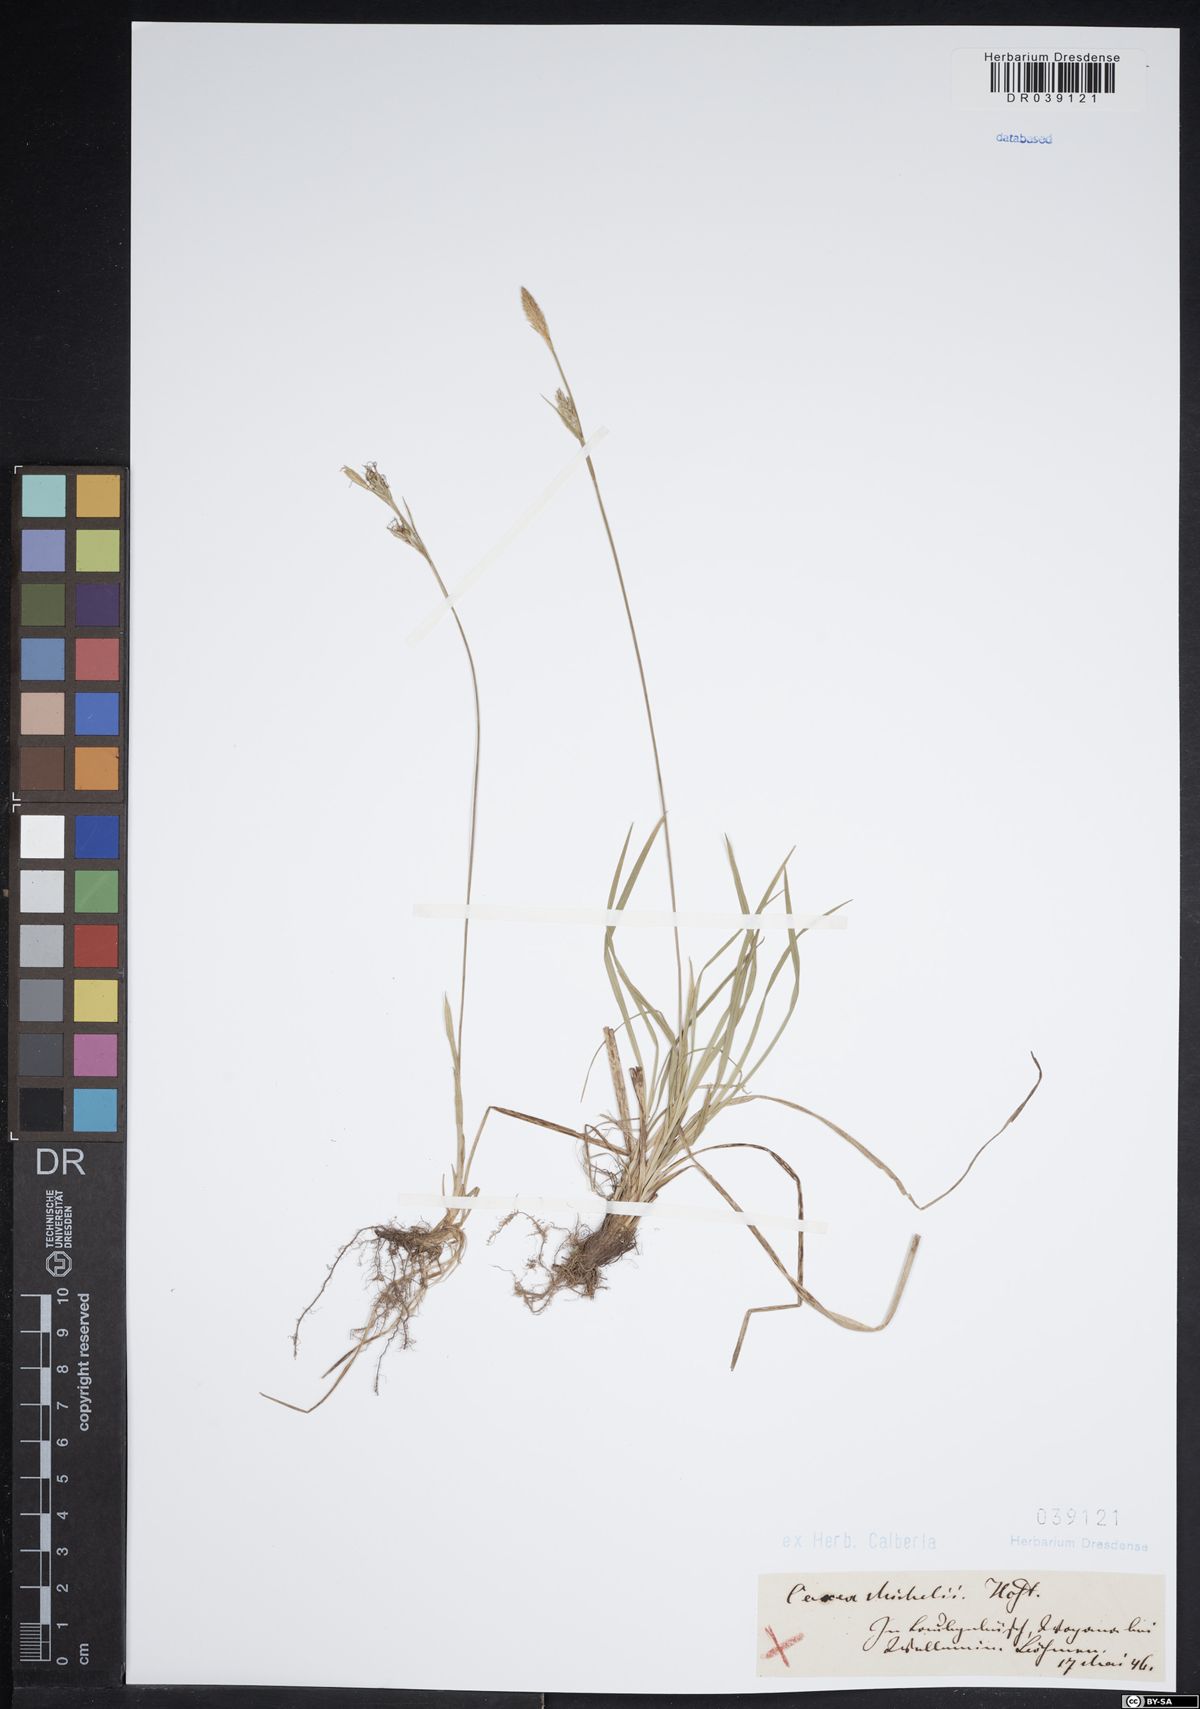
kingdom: Plantae
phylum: Tracheophyta
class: Liliopsida
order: Poales
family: Cyperaceae
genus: Carex
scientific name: Carex michelii
